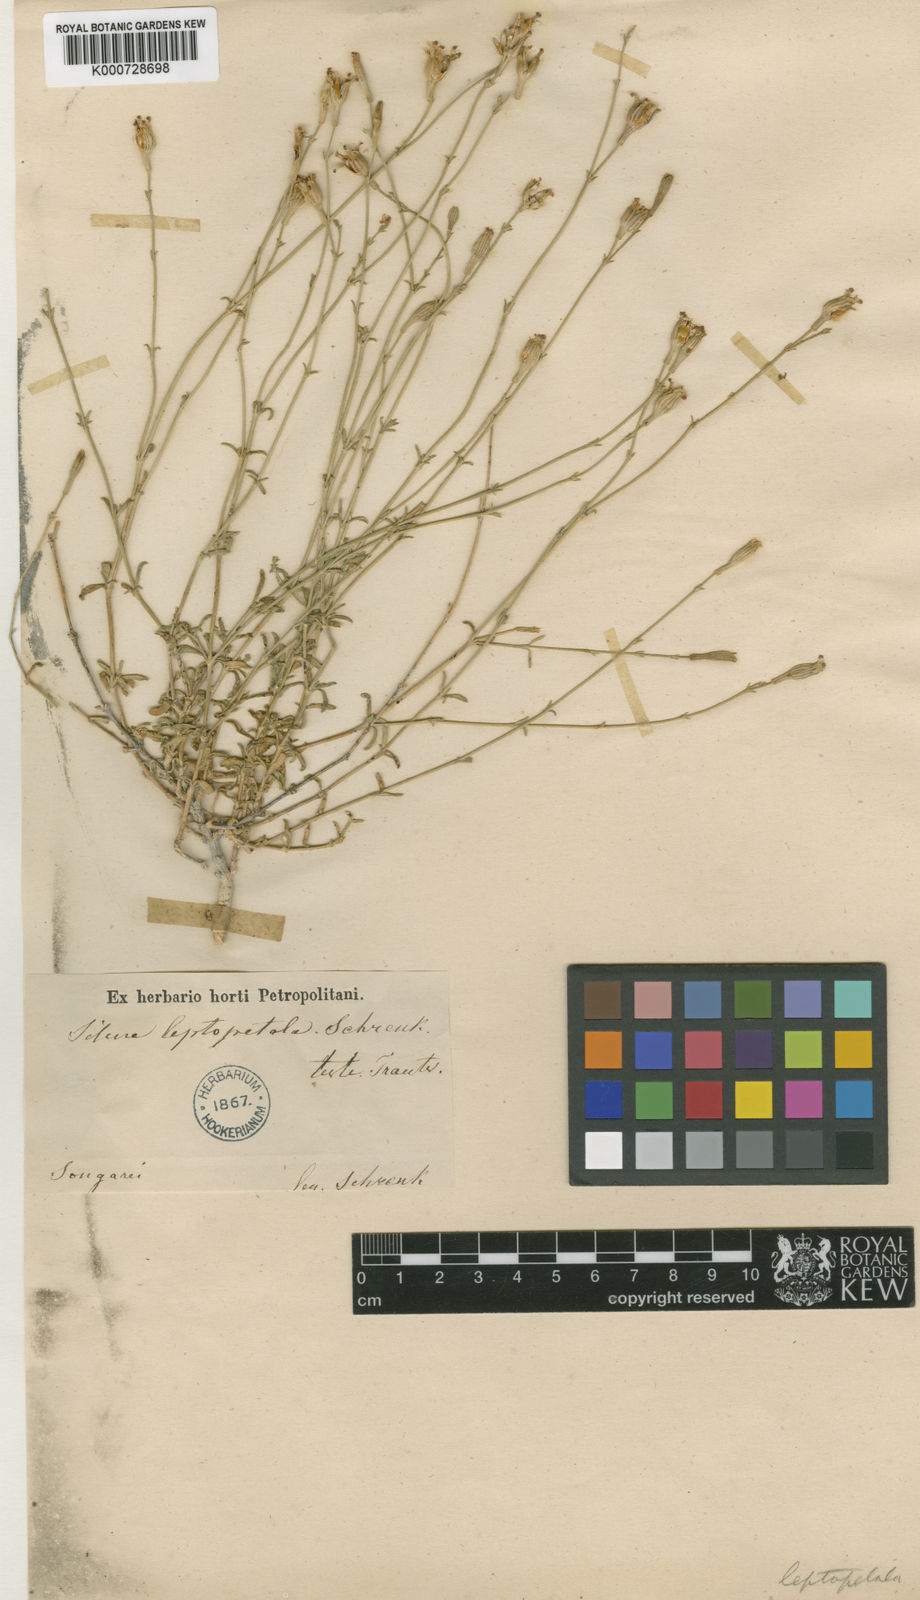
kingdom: Plantae
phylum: Tracheophyta
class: Magnoliopsida
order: Caryophyllales
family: Caryophyllaceae
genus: Silene
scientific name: Silene fruticulosa
